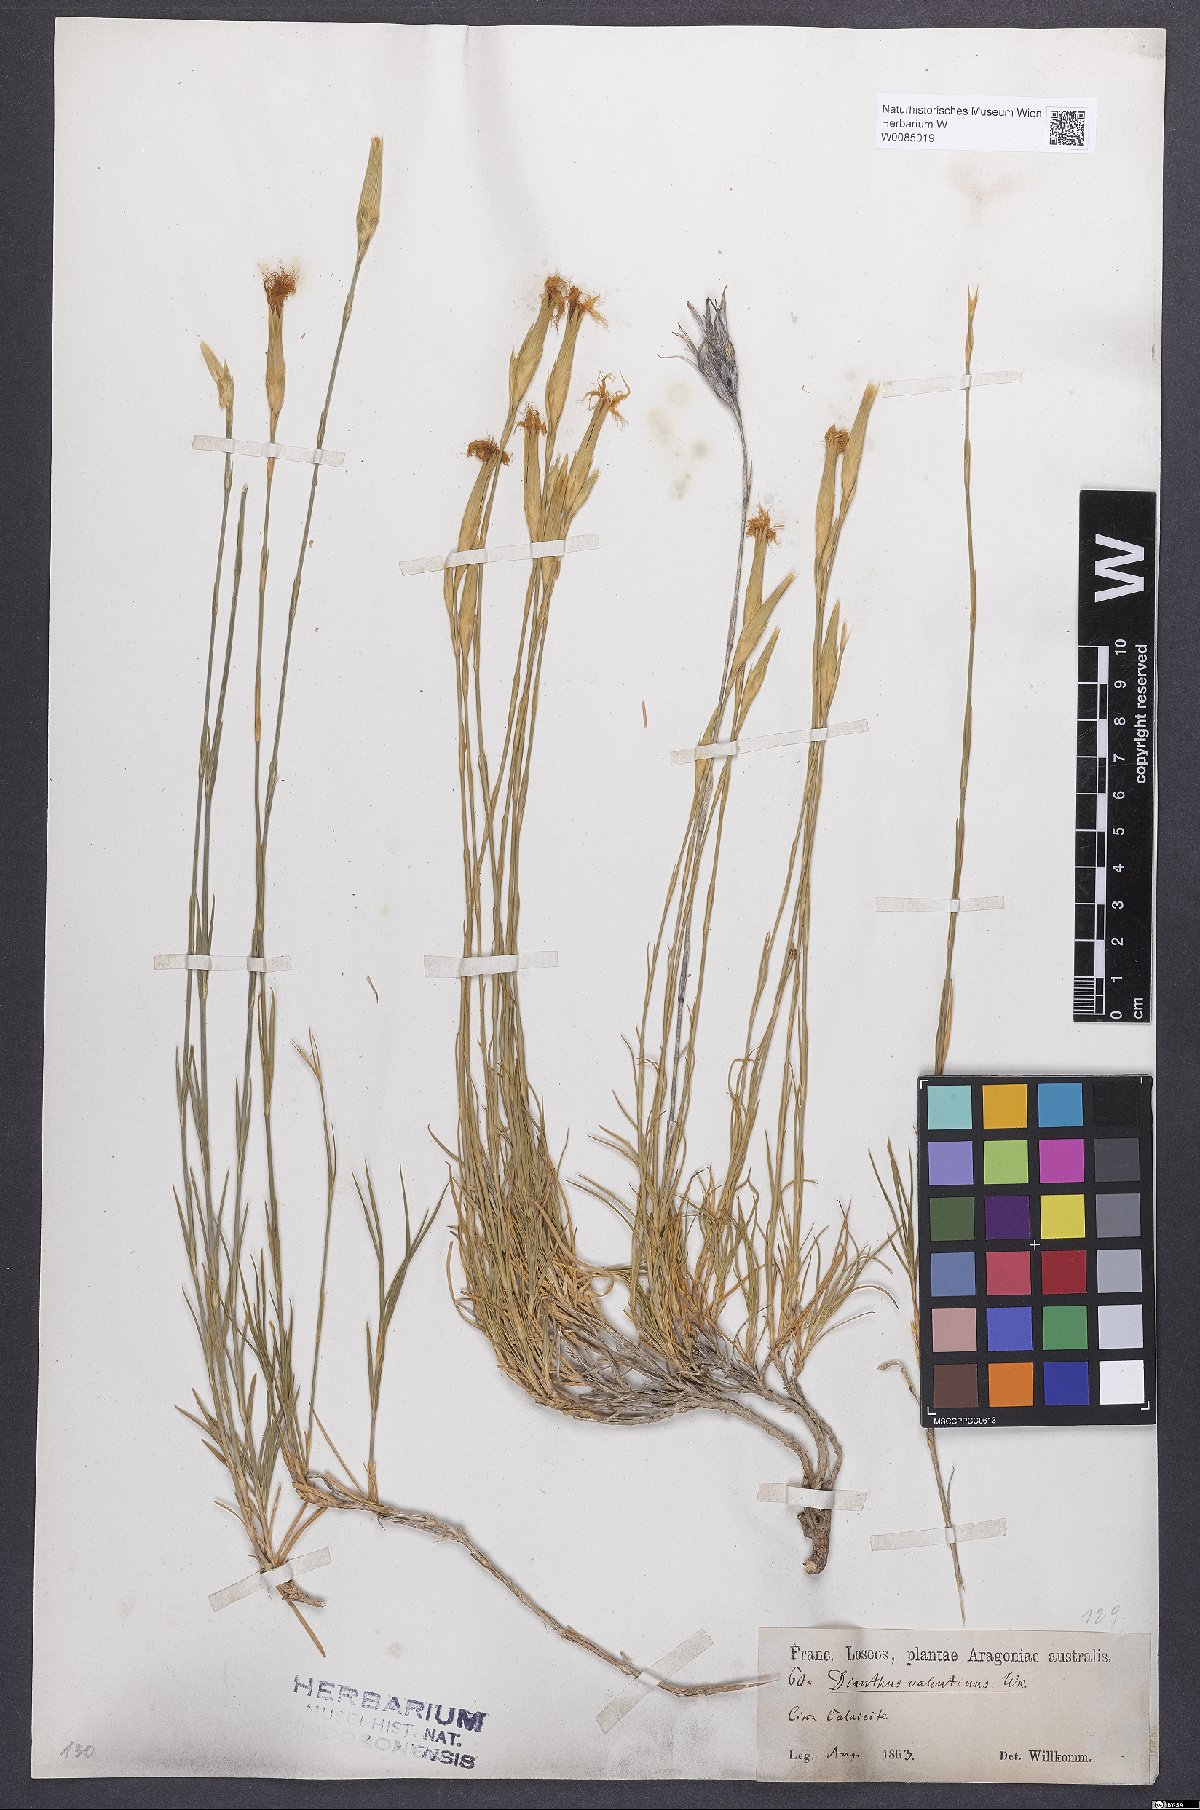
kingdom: Plantae
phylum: Tracheophyta
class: Magnoliopsida
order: Caryophyllales
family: Caryophyllaceae
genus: Dianthus
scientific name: Dianthus broteri
